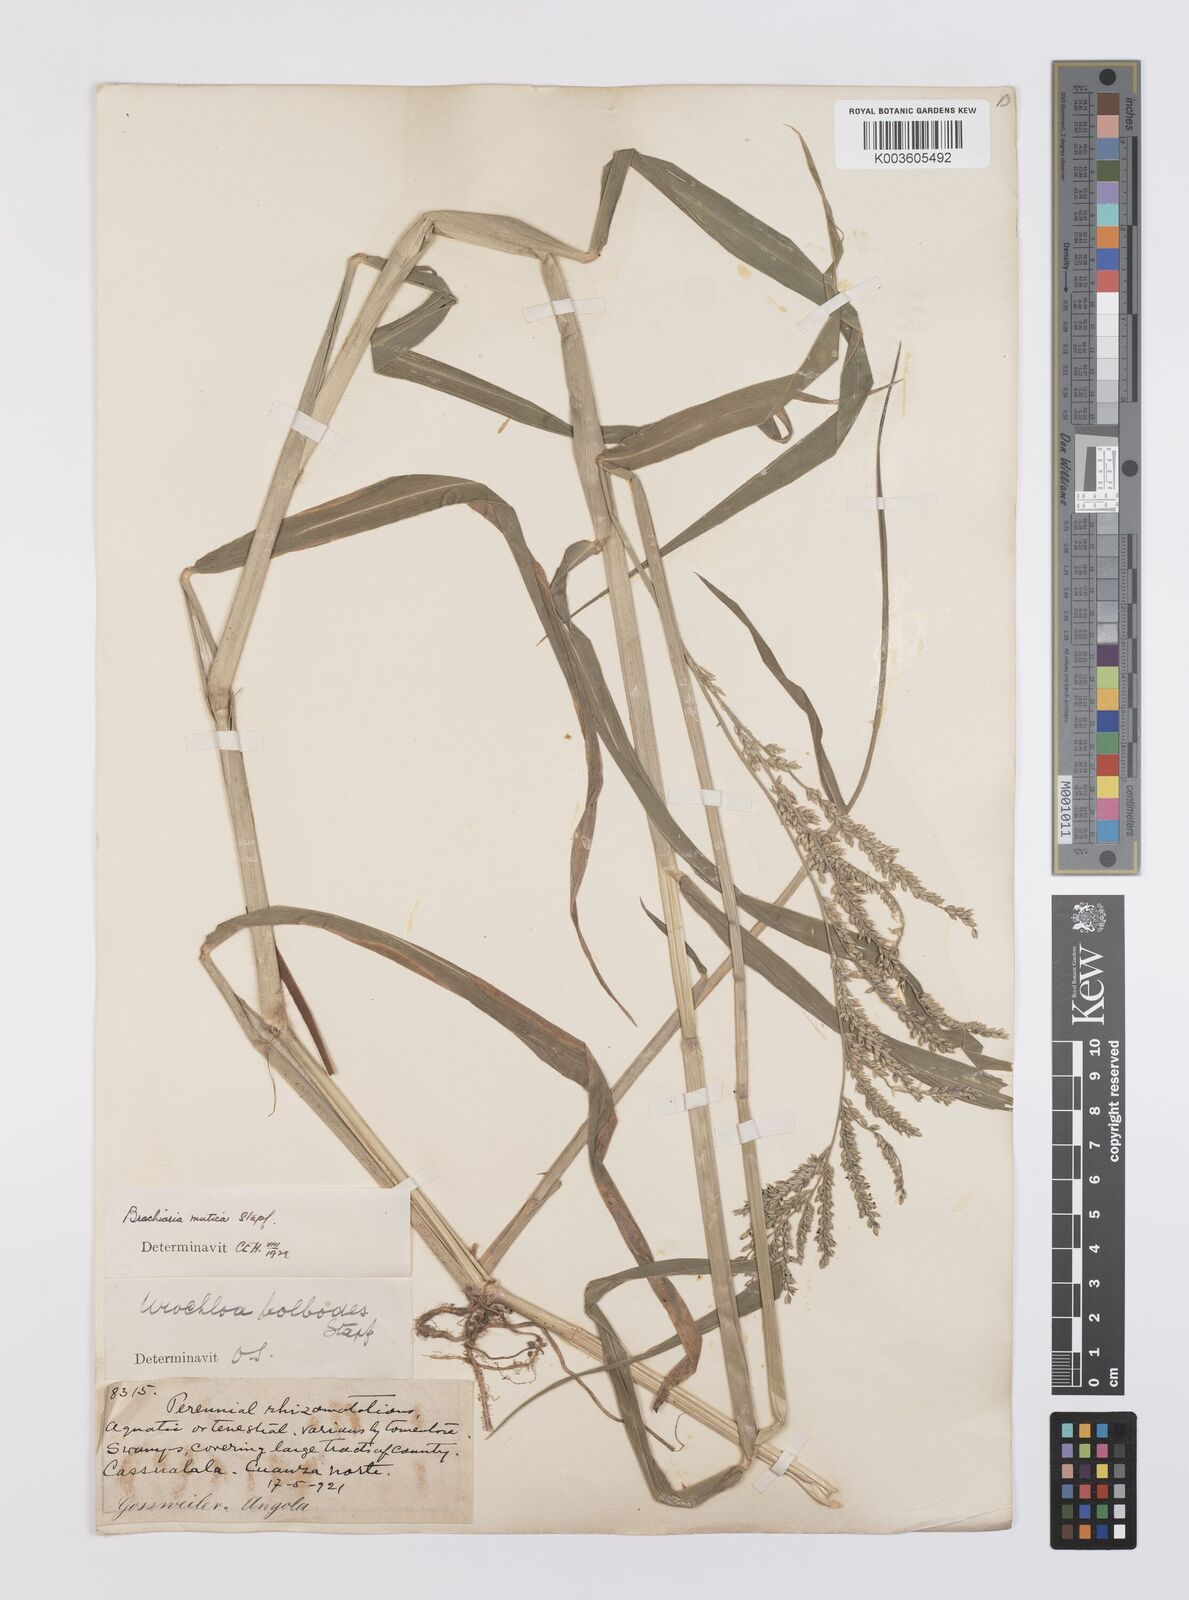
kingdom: Plantae
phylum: Tracheophyta
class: Liliopsida
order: Poales
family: Poaceae
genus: Urochloa
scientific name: Urochloa mutica
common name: Para grass
